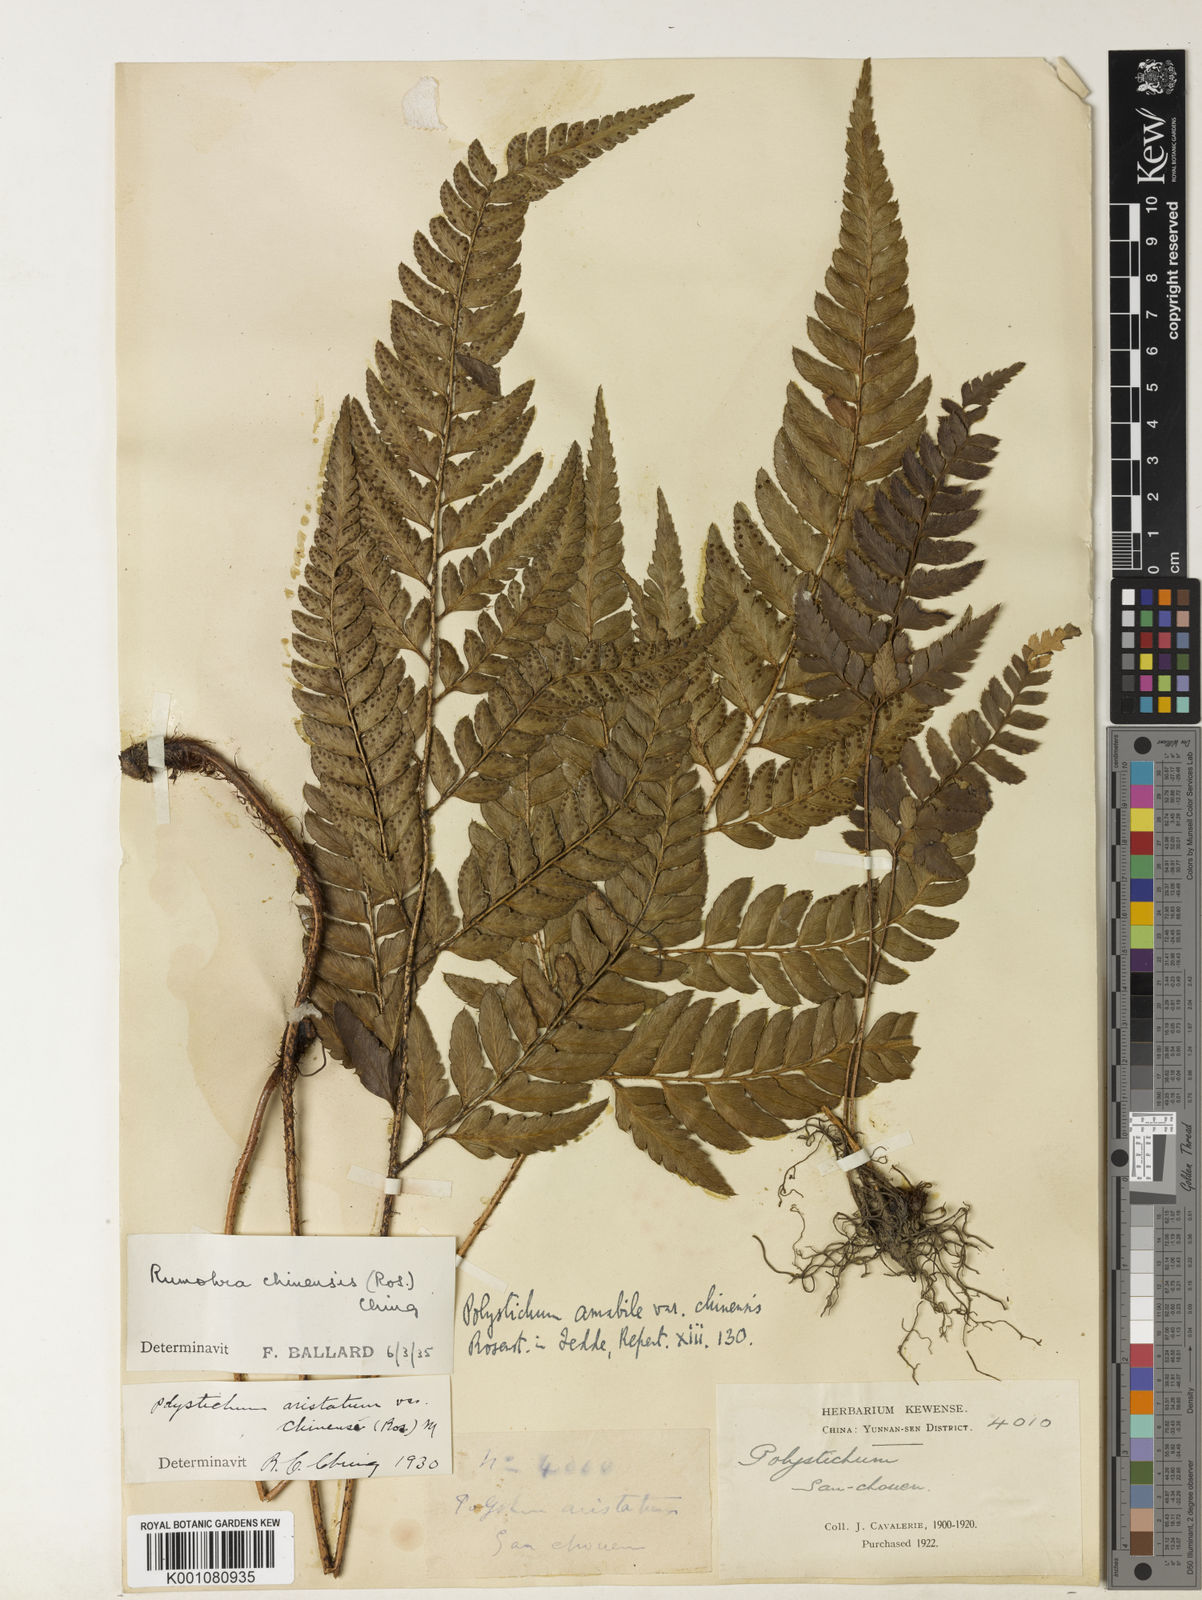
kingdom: Plantae
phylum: Tracheophyta
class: Polypodiopsida
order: Polypodiales
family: Dryopteridaceae
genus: Arachniodes
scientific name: Arachniodes chinensis
